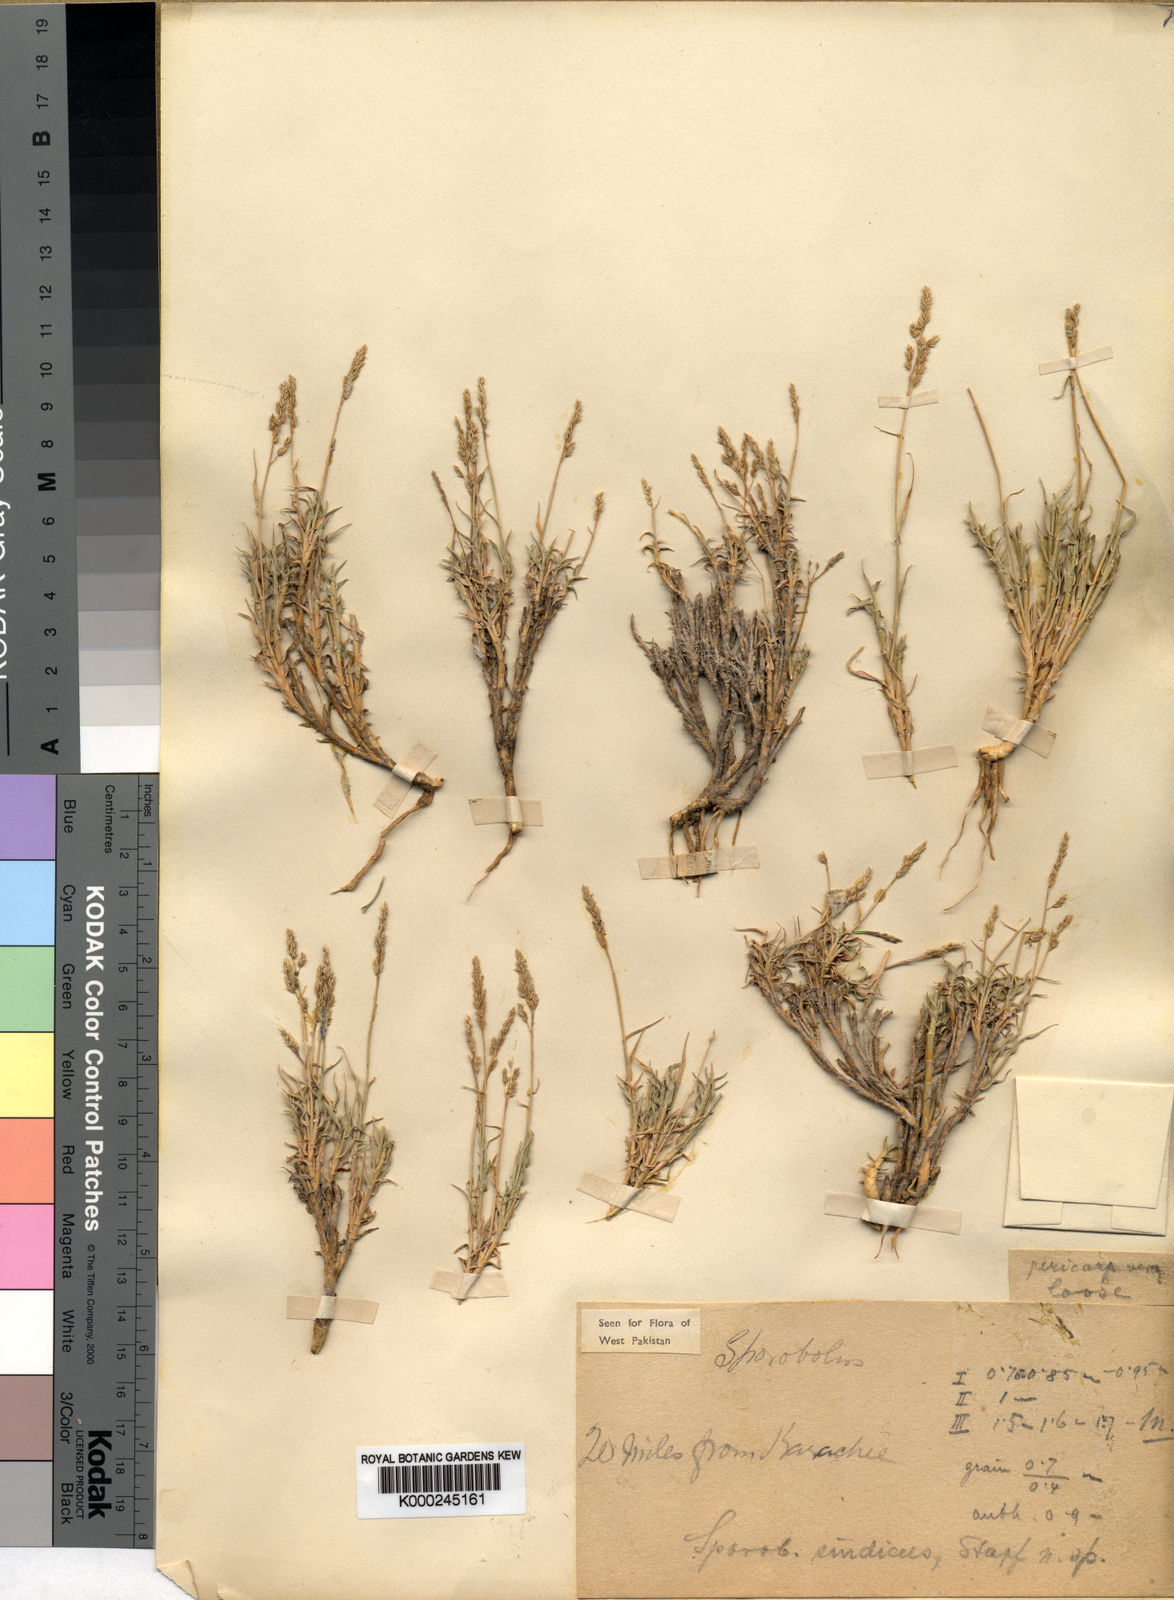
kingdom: Plantae
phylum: Tracheophyta
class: Liliopsida
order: Poales
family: Poaceae
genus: Sporobolus
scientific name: Sporobolus tourneuxii
